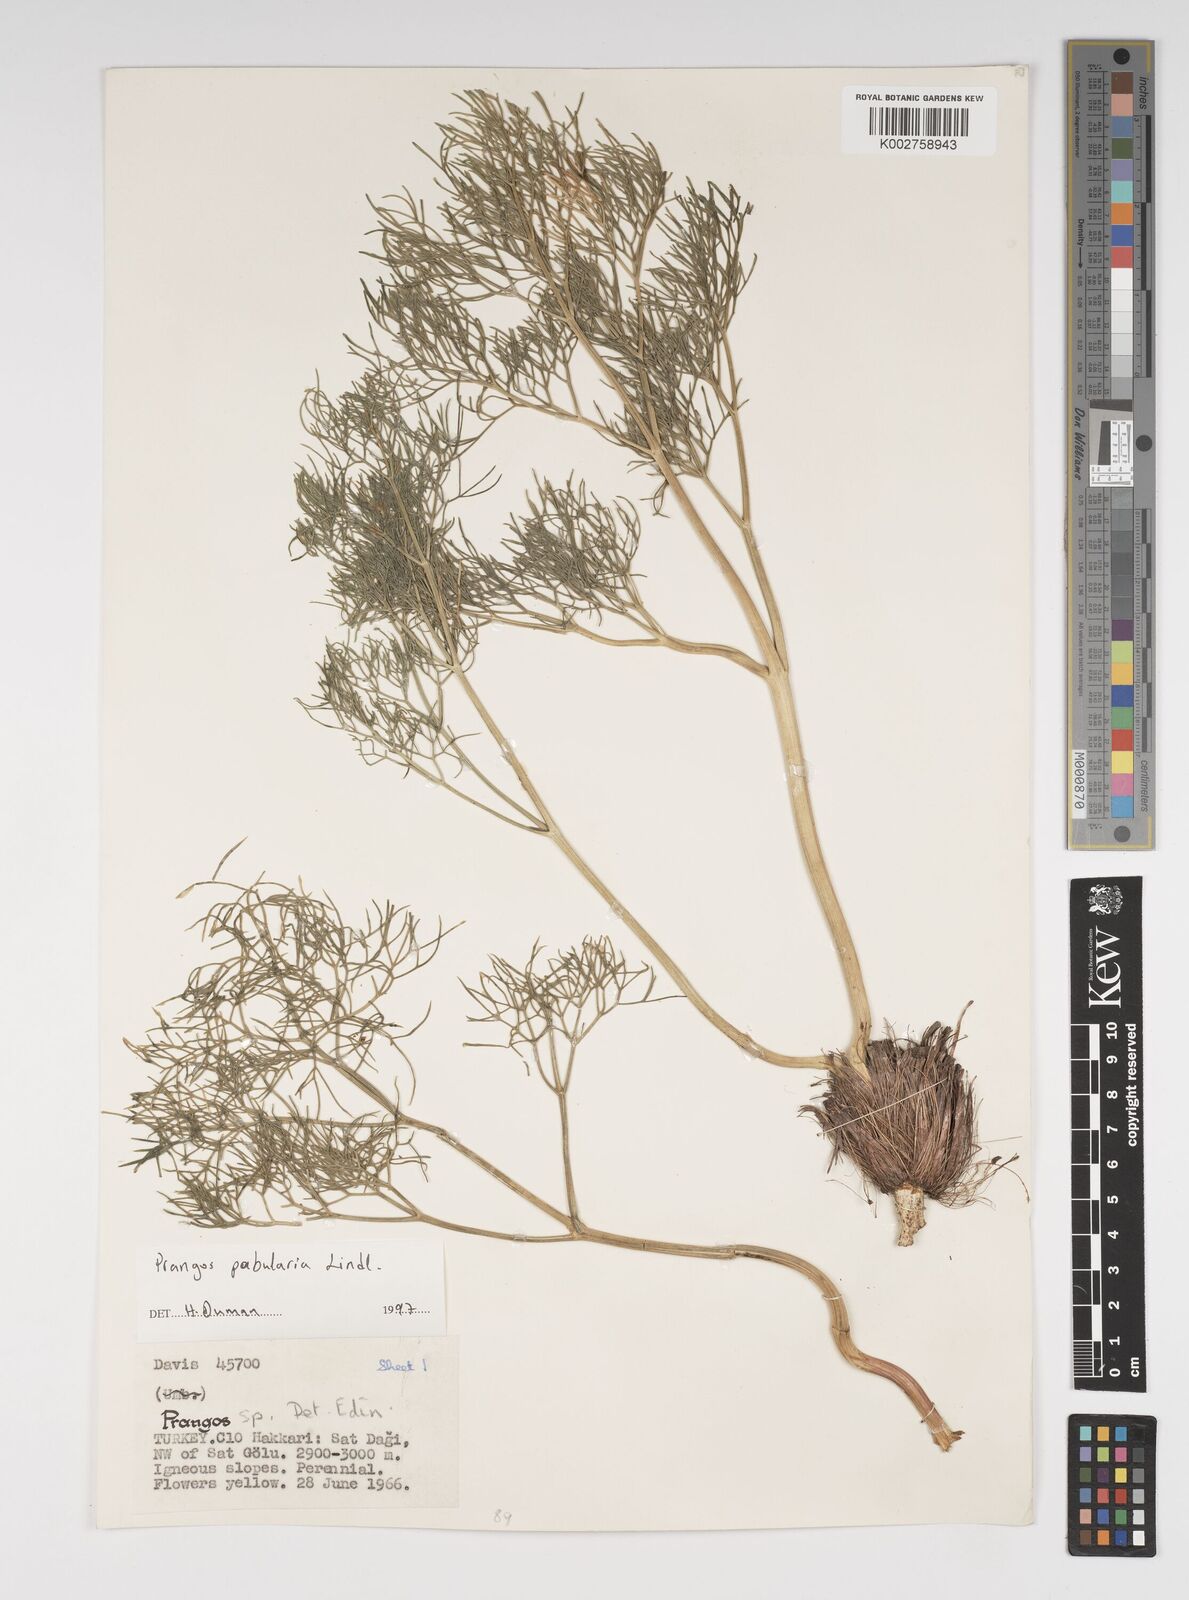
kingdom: Plantae
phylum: Tracheophyta
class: Magnoliopsida
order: Apiales
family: Apiaceae
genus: Prangos
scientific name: Prangos pabularia
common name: Yugan
